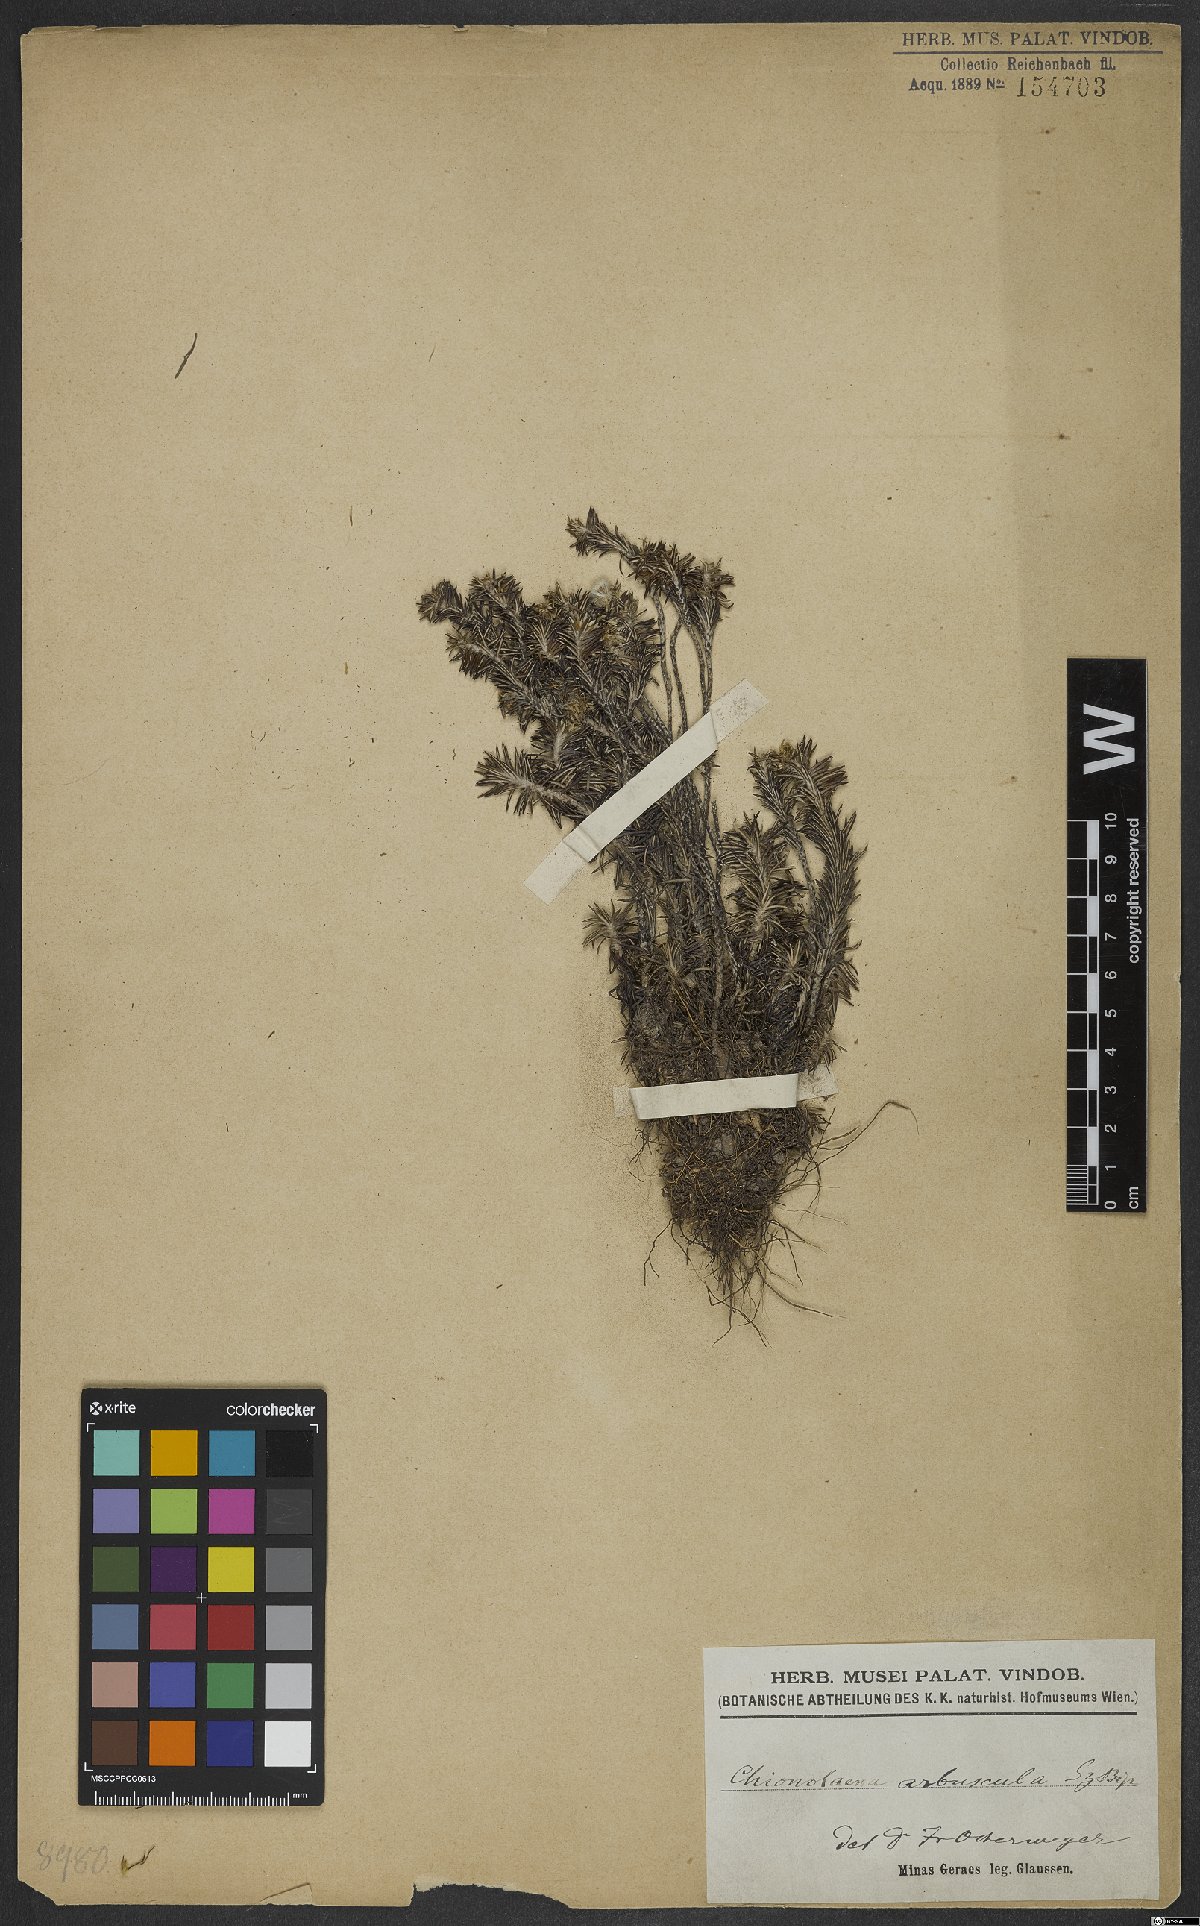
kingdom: Plantae
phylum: Tracheophyta
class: Magnoliopsida
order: Asterales
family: Asteraceae
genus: Chionolaena
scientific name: Chionolaena arbuscula
